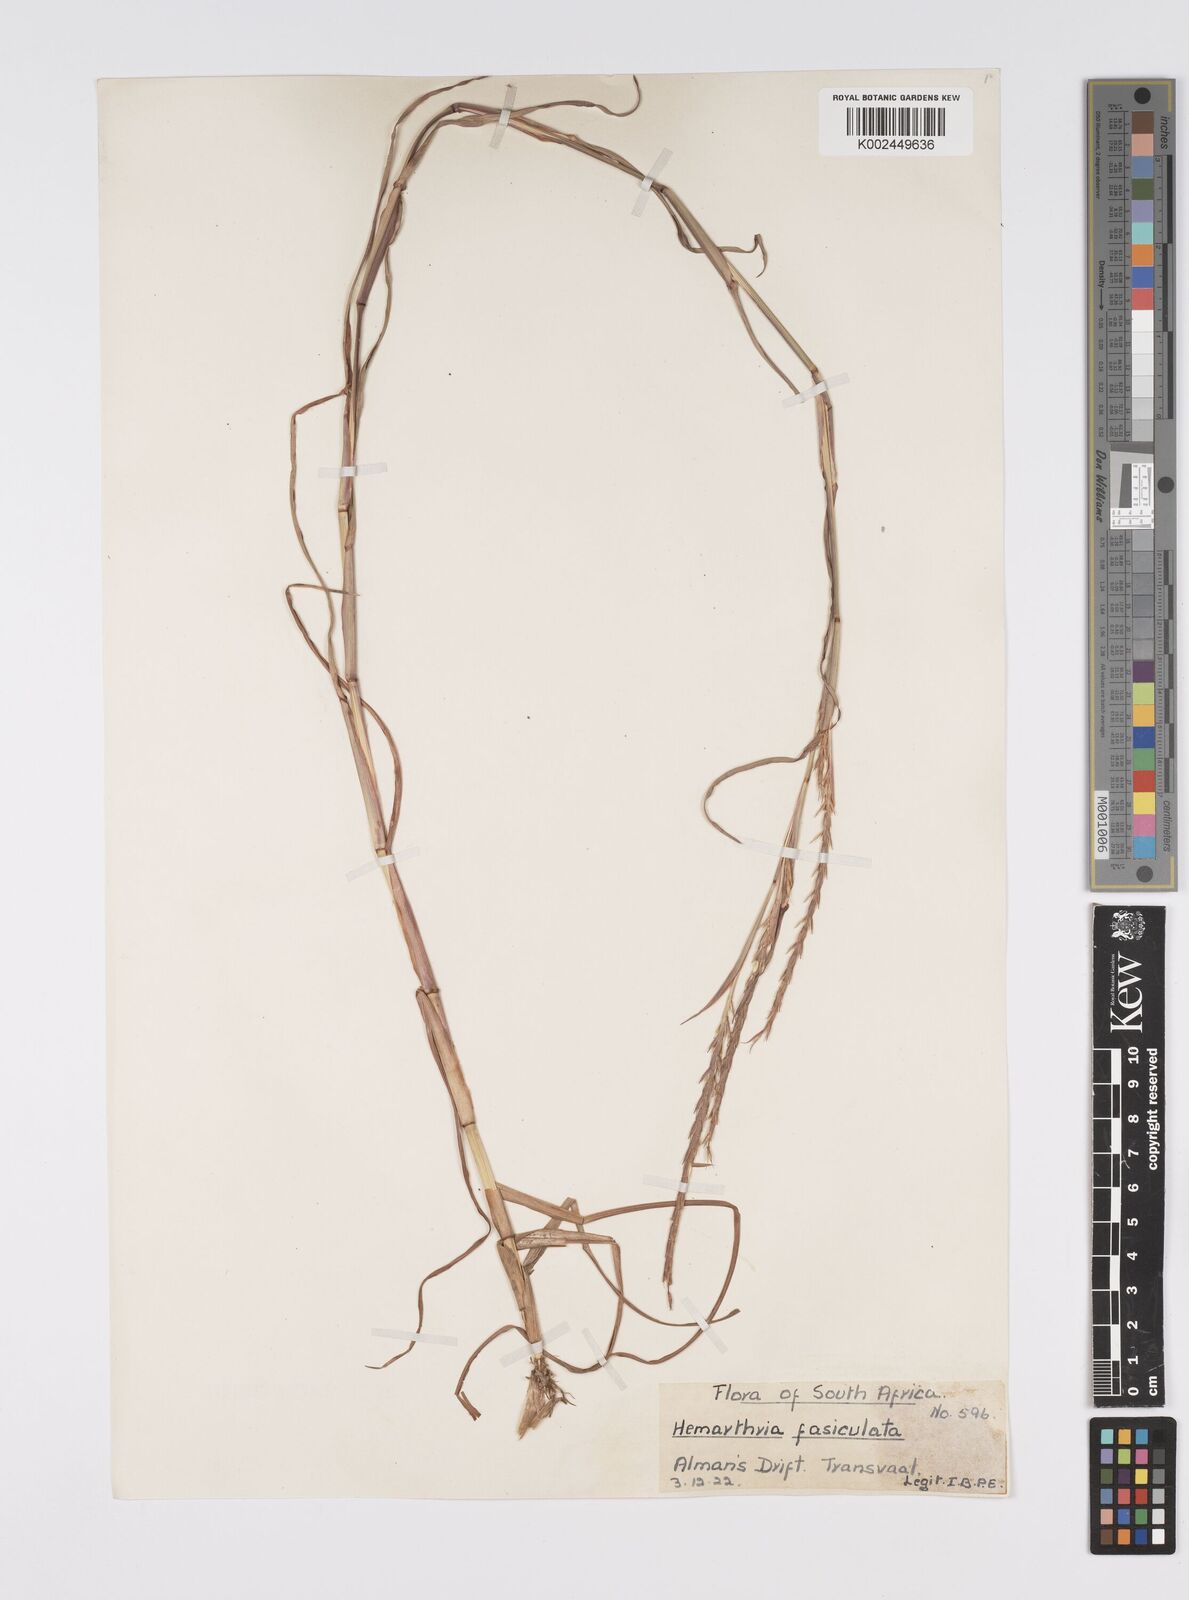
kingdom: Plantae
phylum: Tracheophyta
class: Liliopsida
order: Poales
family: Poaceae
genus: Hemarthria
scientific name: Hemarthria altissima
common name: African jointgrass
